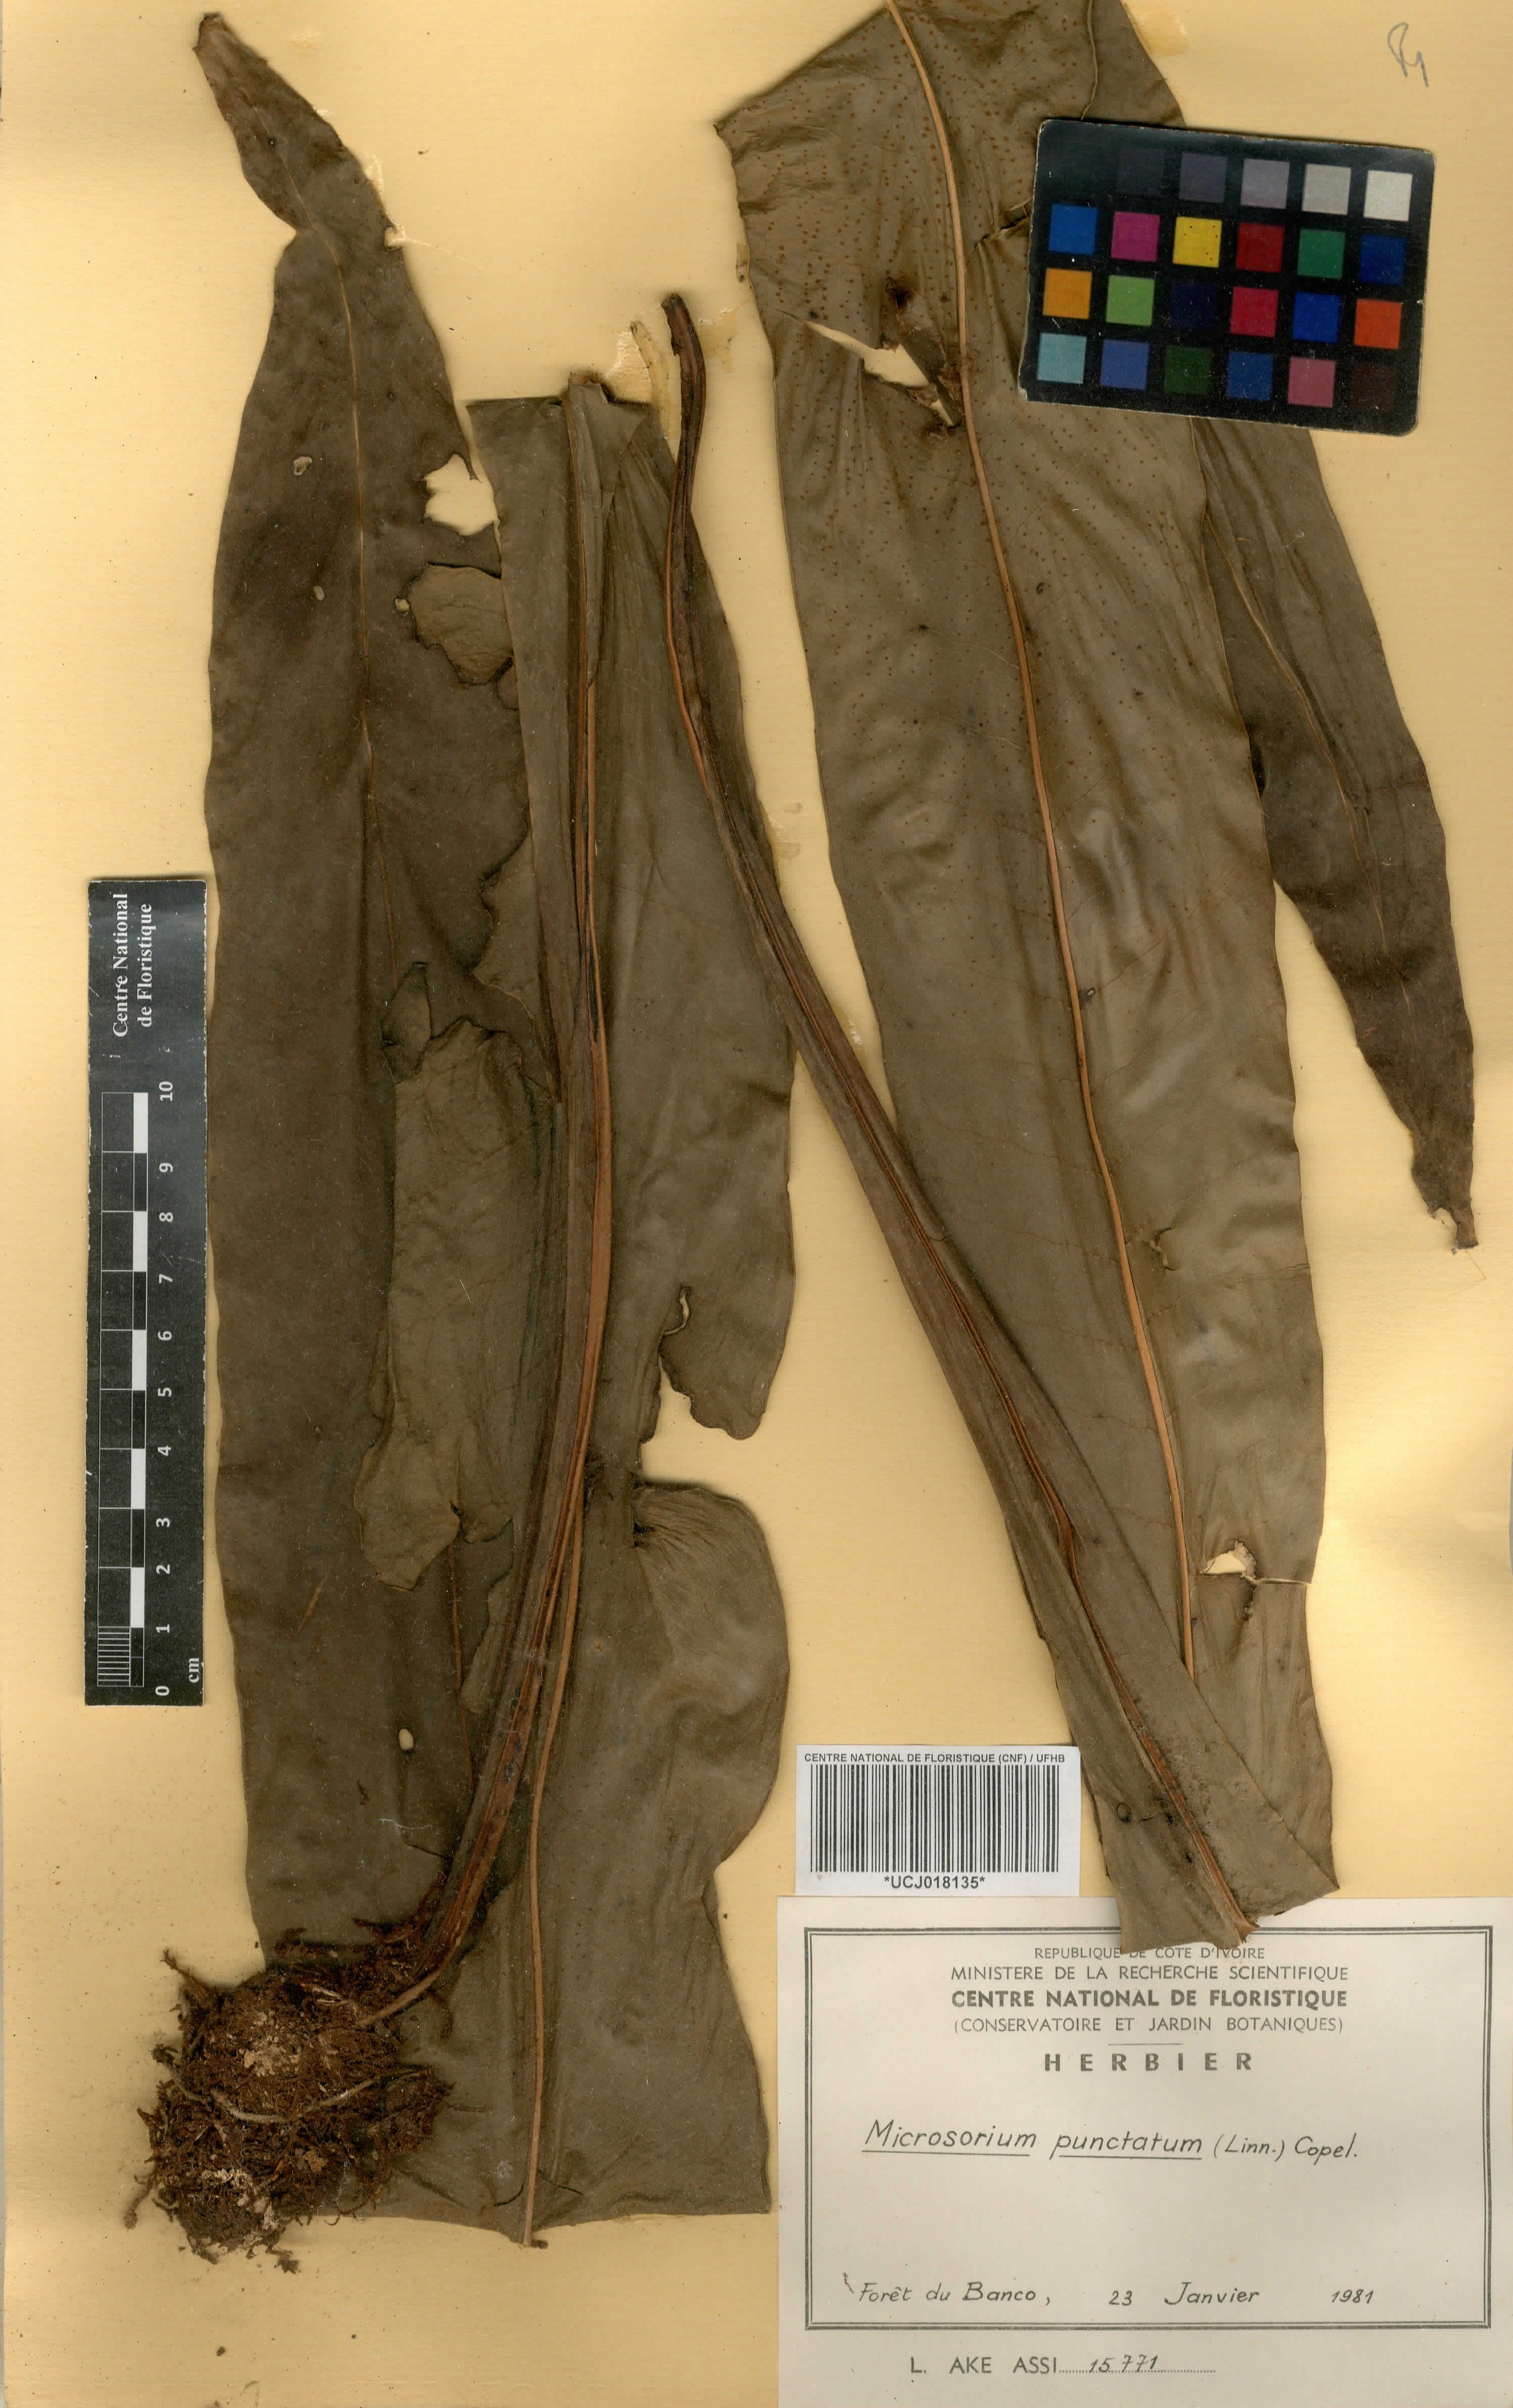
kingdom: Plantae
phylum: Tracheophyta
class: Polypodiopsida
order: Polypodiales
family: Polypodiaceae
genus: Microsorum
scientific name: Microsorum punctatum
